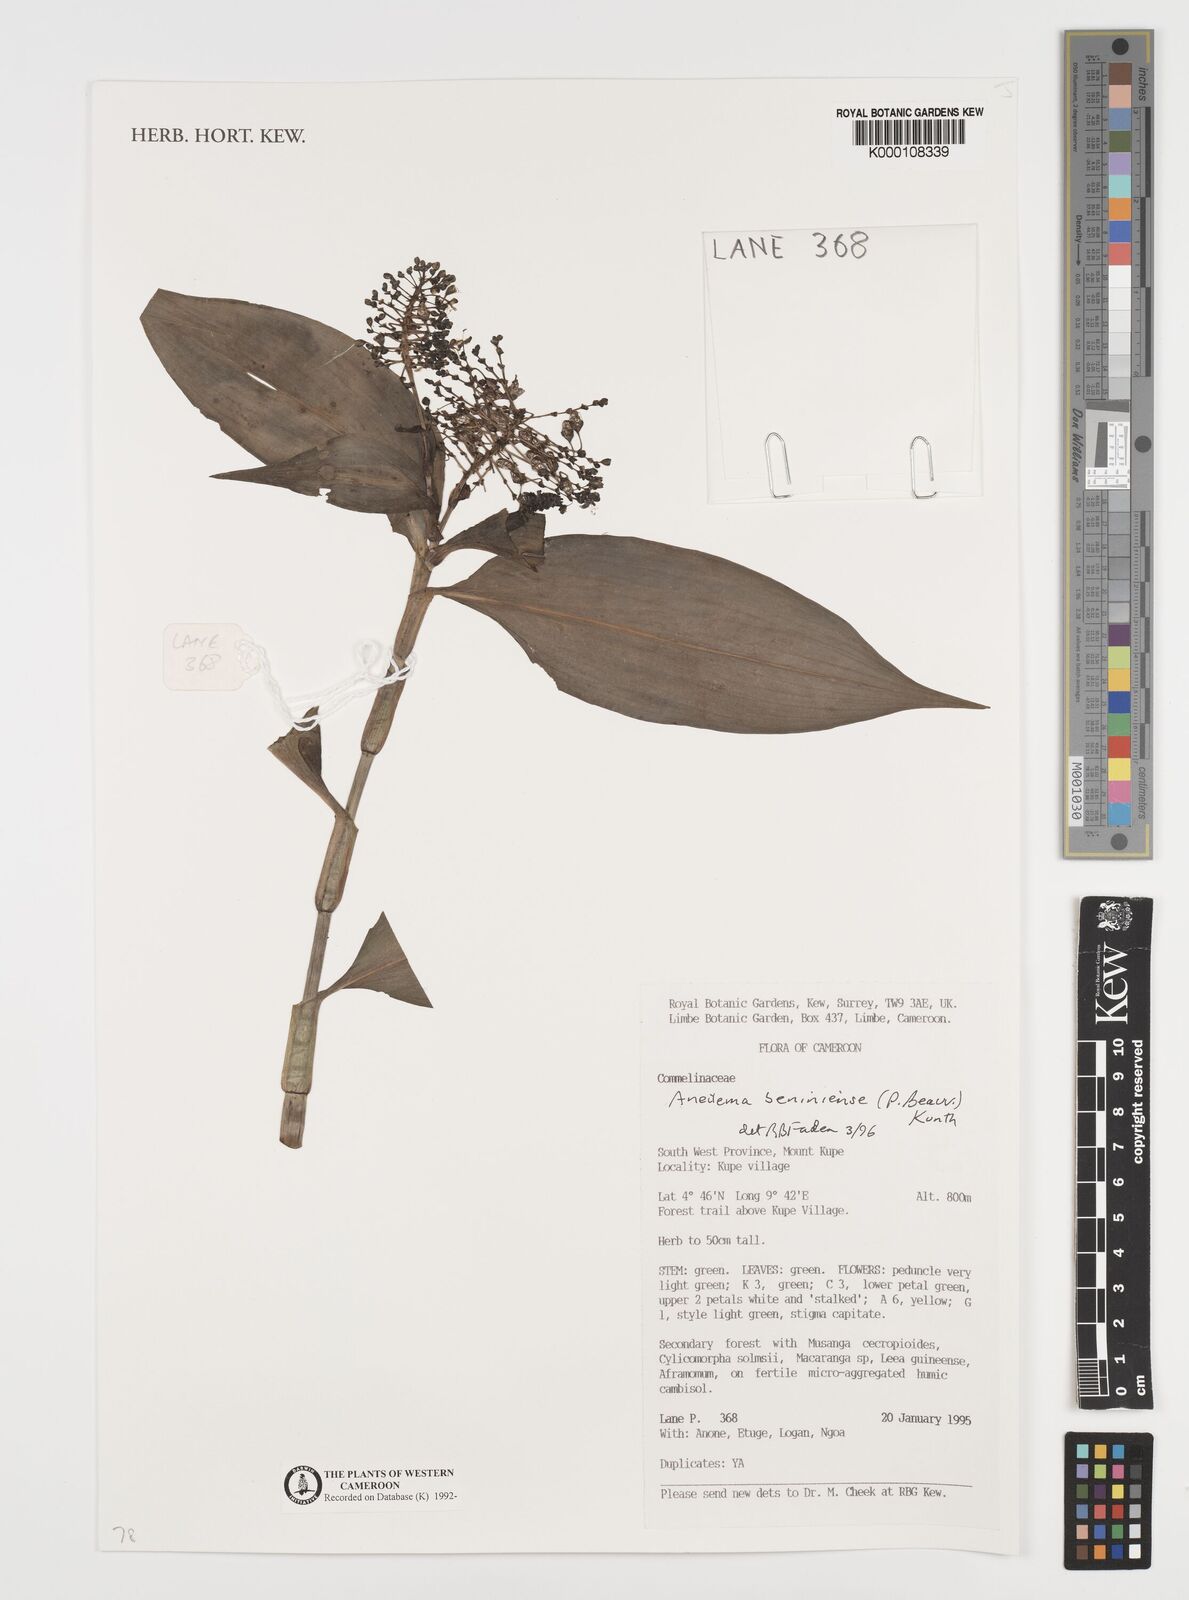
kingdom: Plantae
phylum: Tracheophyta
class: Liliopsida
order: Commelinales
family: Commelinaceae
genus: Aneilema
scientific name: Aneilema beniniense
